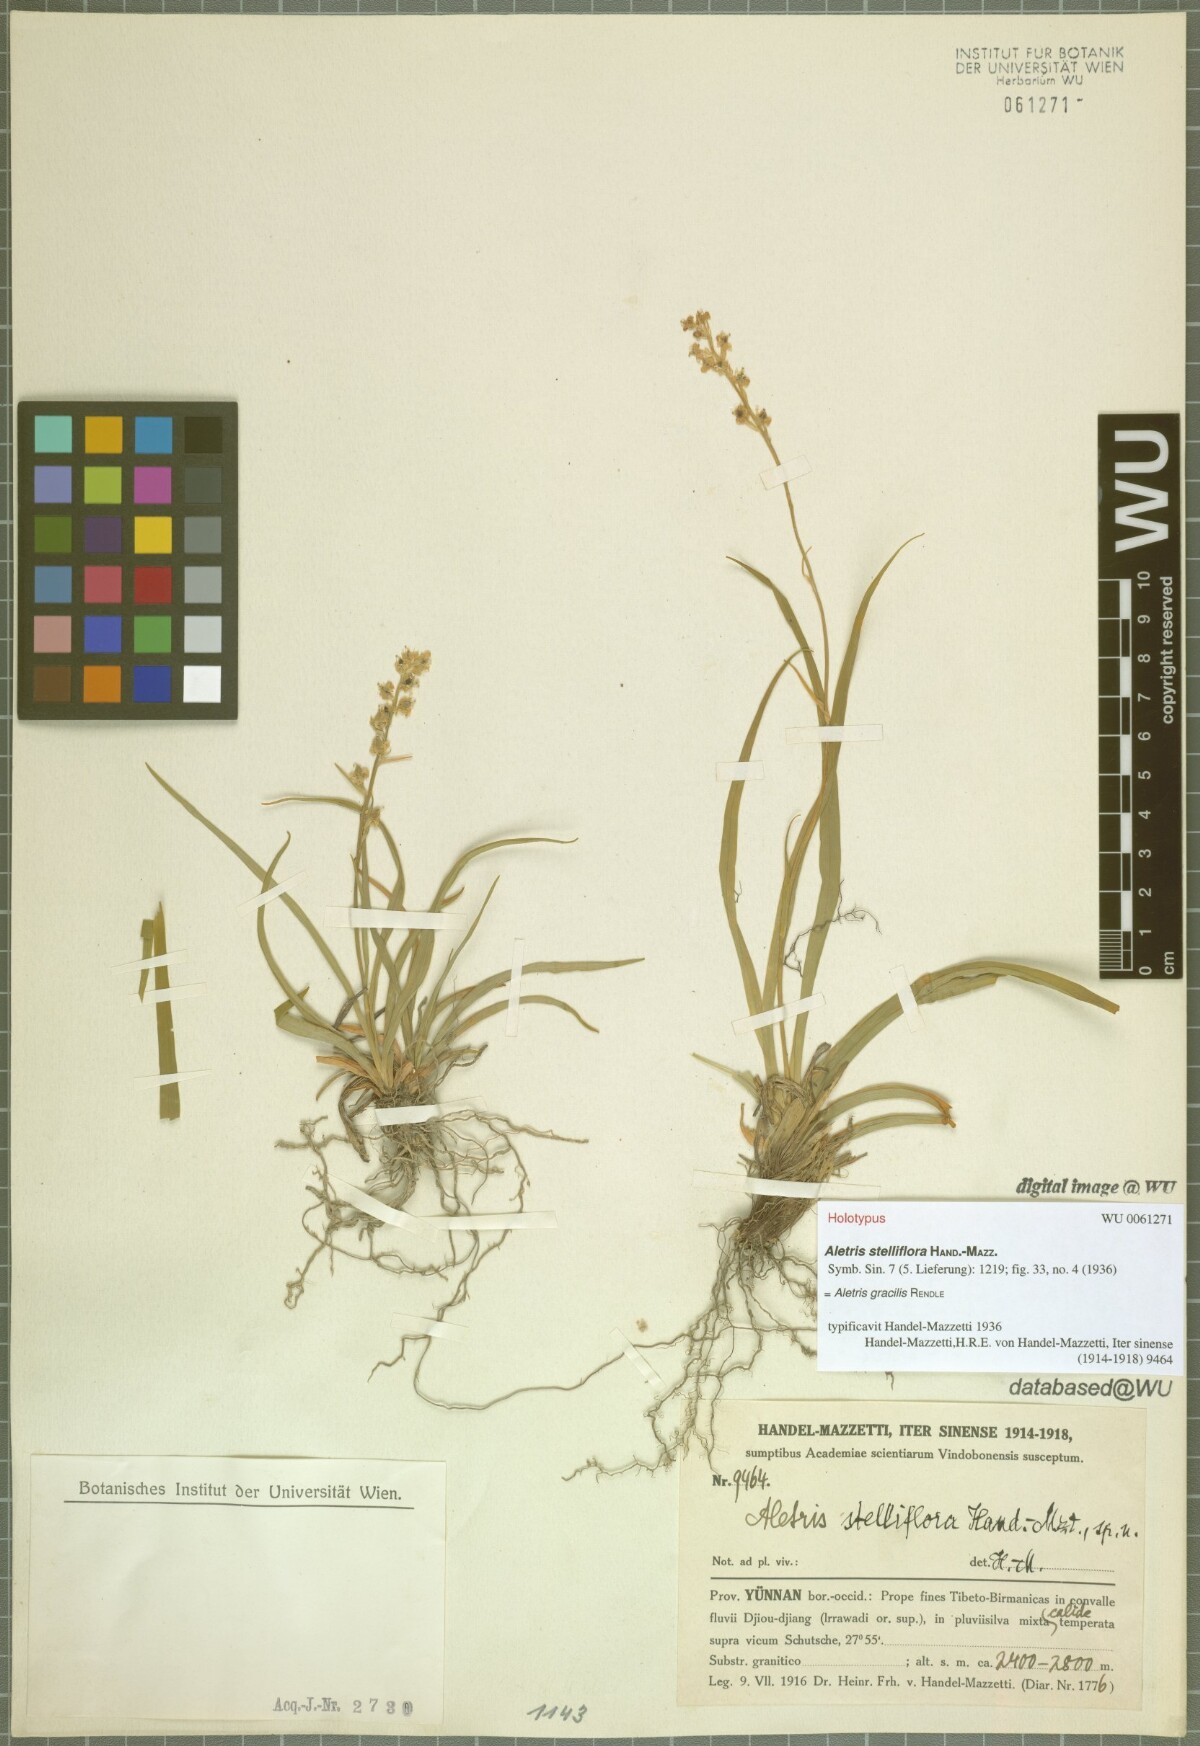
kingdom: Plantae
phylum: Tracheophyta
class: Liliopsida
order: Dioscoreales
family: Nartheciaceae
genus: Aletris
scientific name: Aletris gracilis
